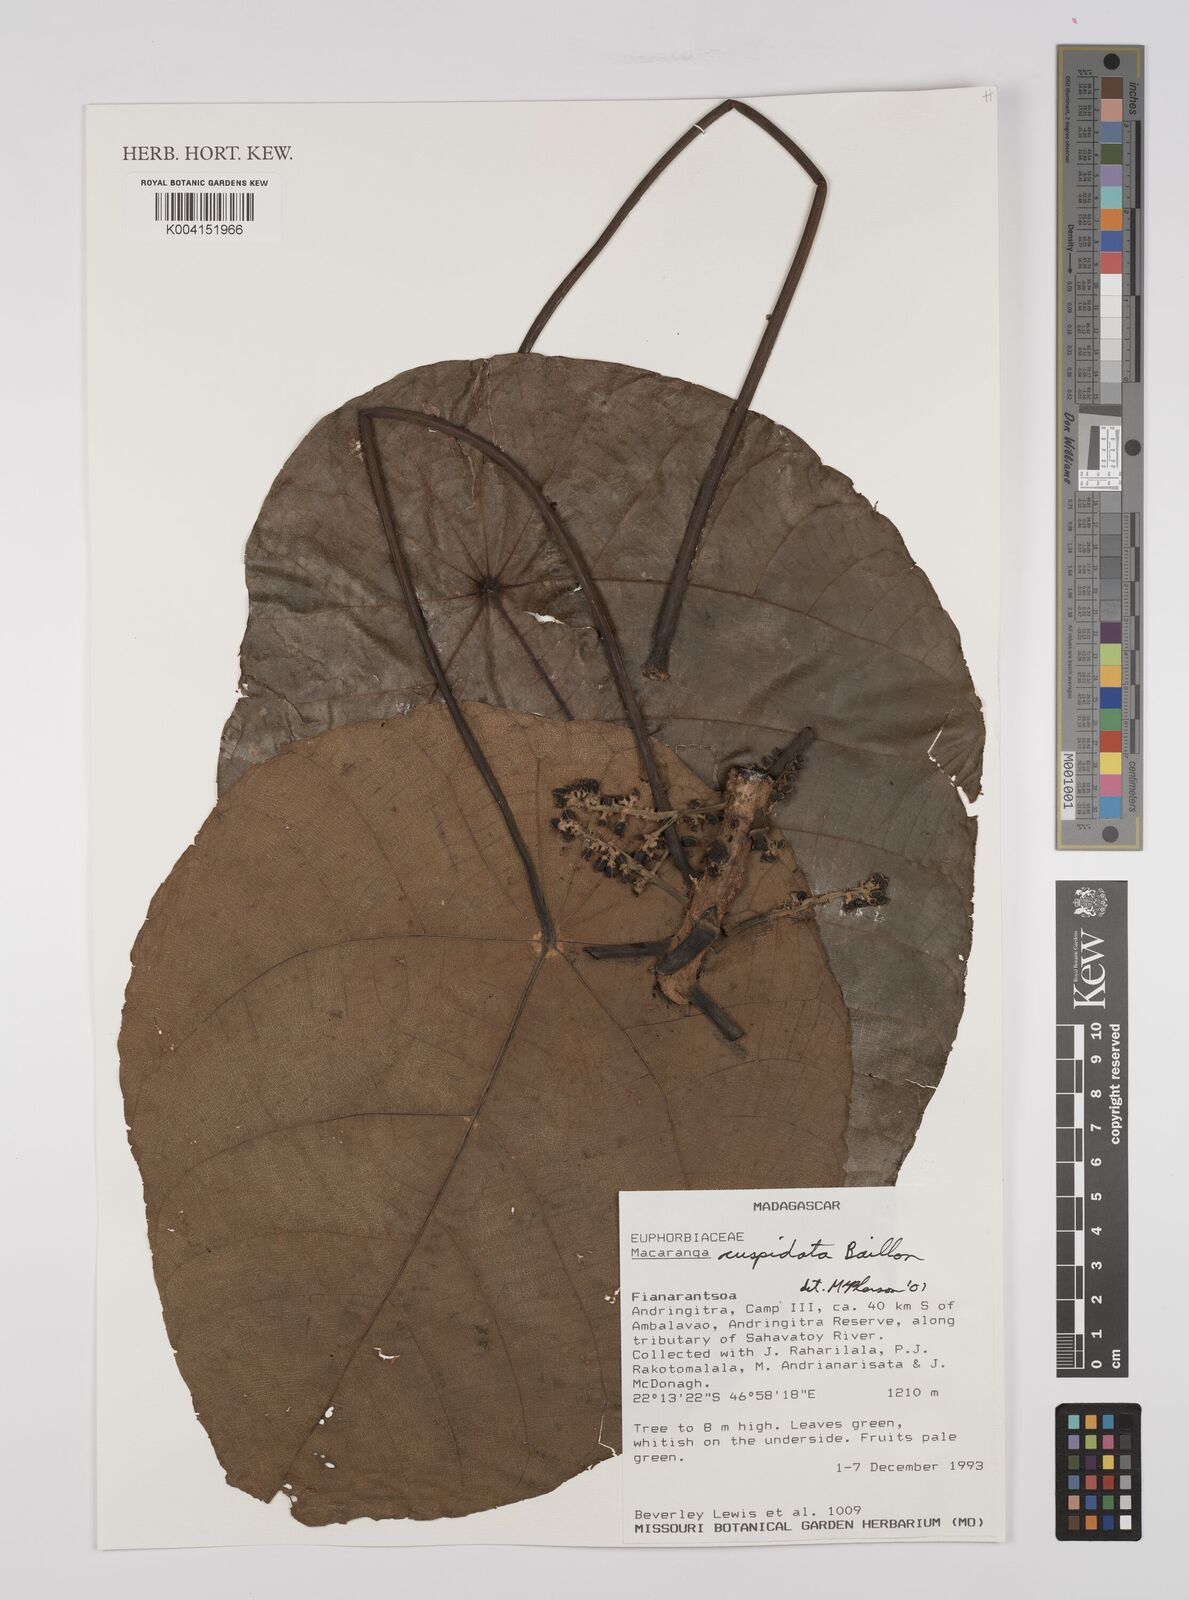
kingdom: Plantae
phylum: Tracheophyta
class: Magnoliopsida
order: Malpighiales
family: Euphorbiaceae
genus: Macaranga
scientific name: Macaranga cuspidata
